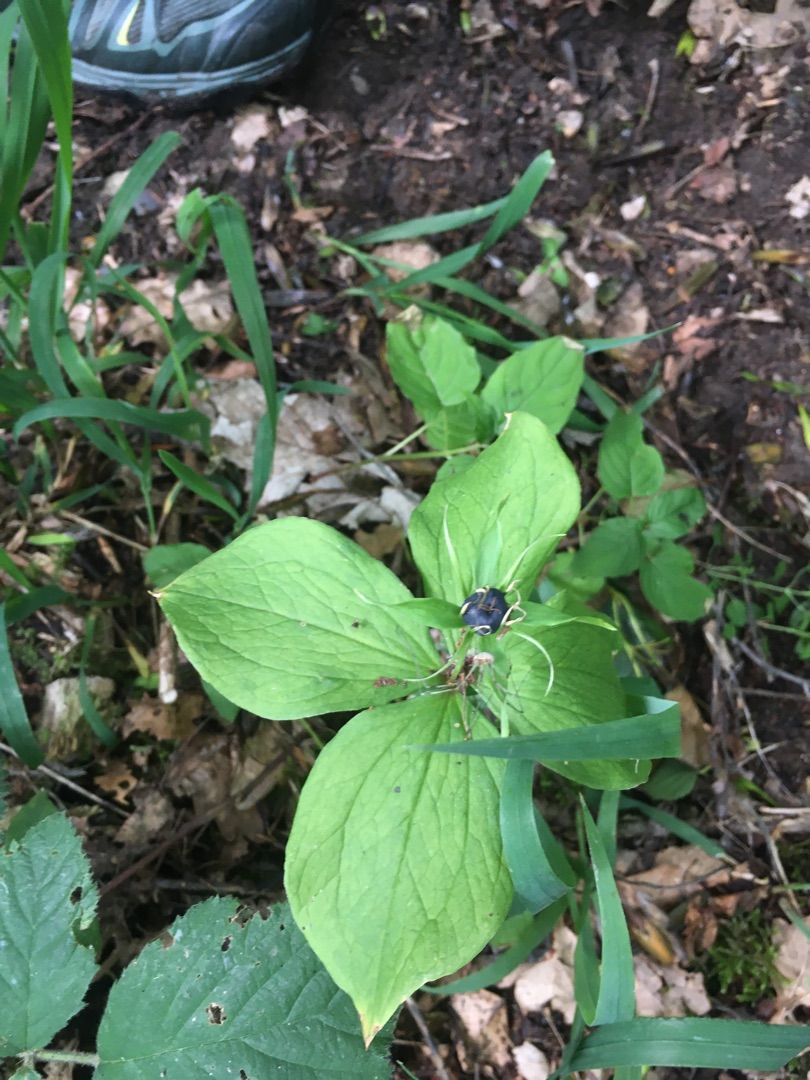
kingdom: Plantae
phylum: Tracheophyta
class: Liliopsida
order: Liliales
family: Melanthiaceae
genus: Paris
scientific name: Paris quadrifolia
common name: Firblad
